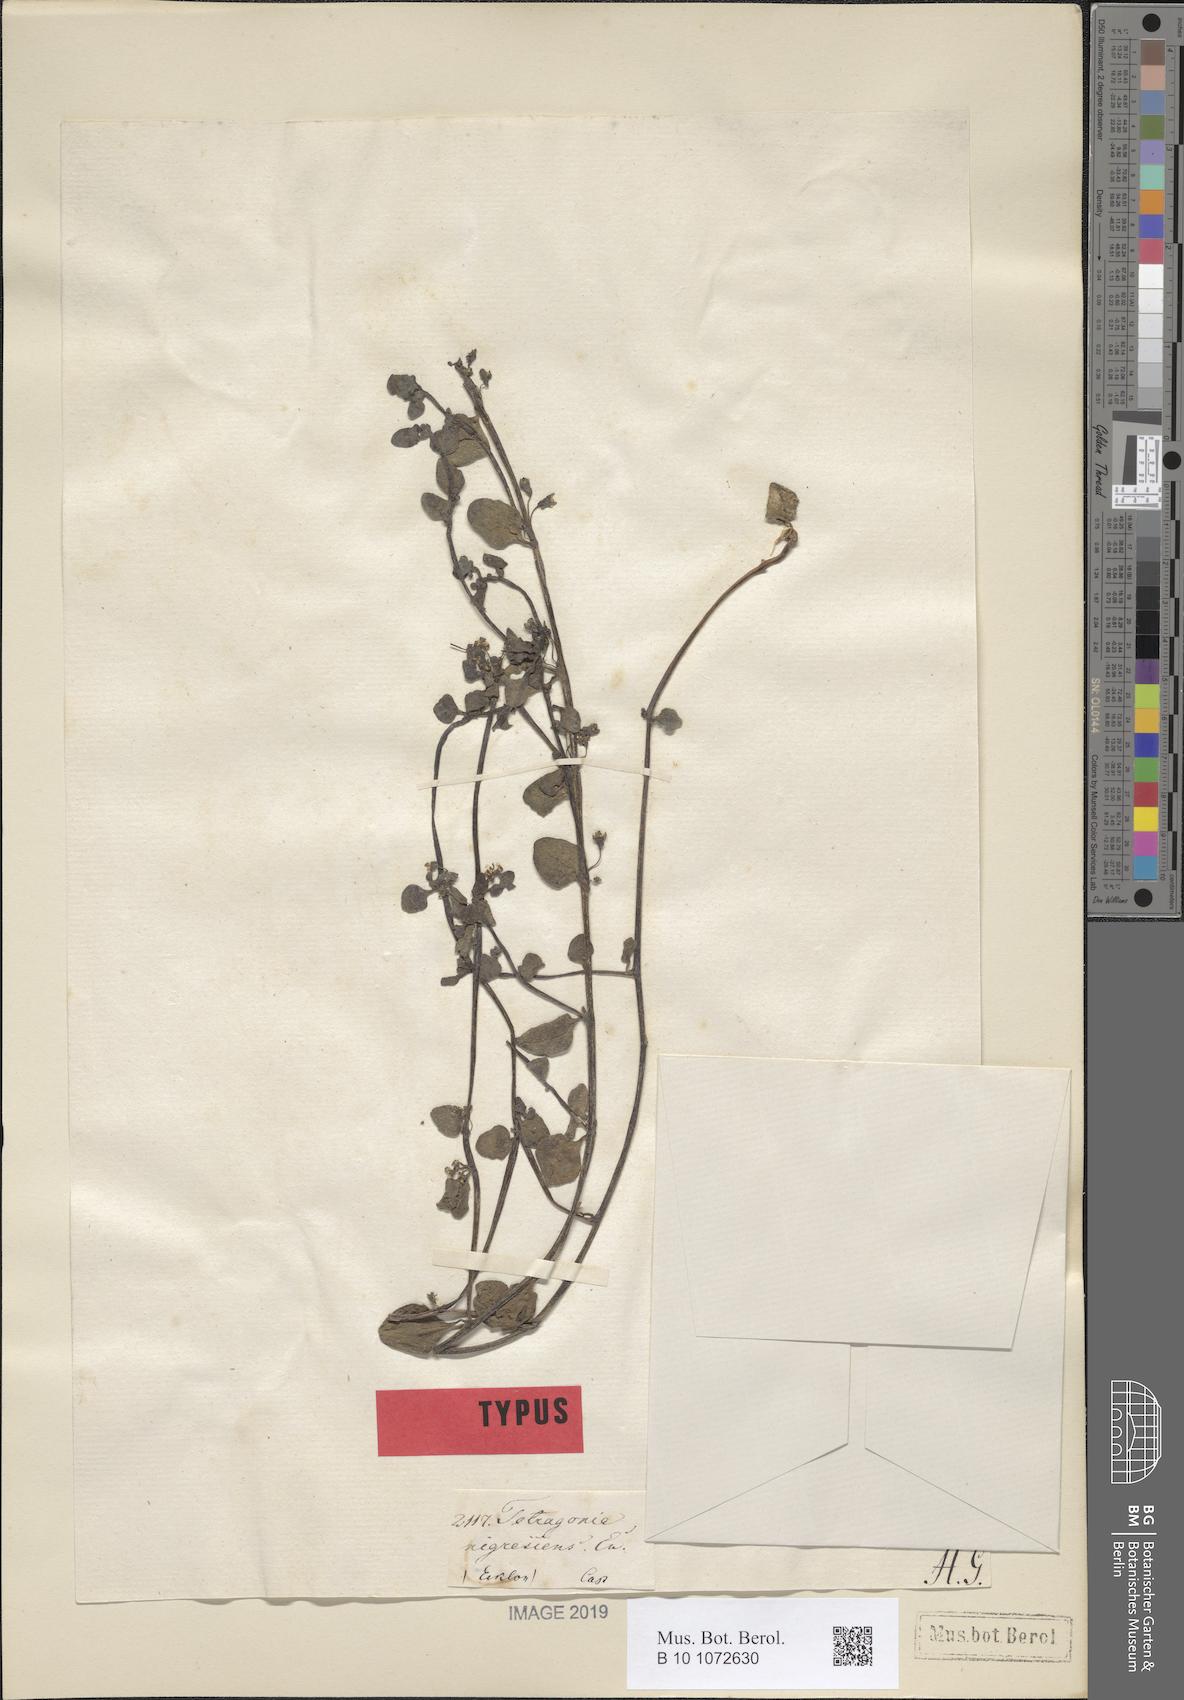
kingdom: Plantae
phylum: Tracheophyta
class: Magnoliopsida
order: Caryophyllales
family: Aizoaceae
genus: Tetragonia
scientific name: Tetragonia nigrescens
